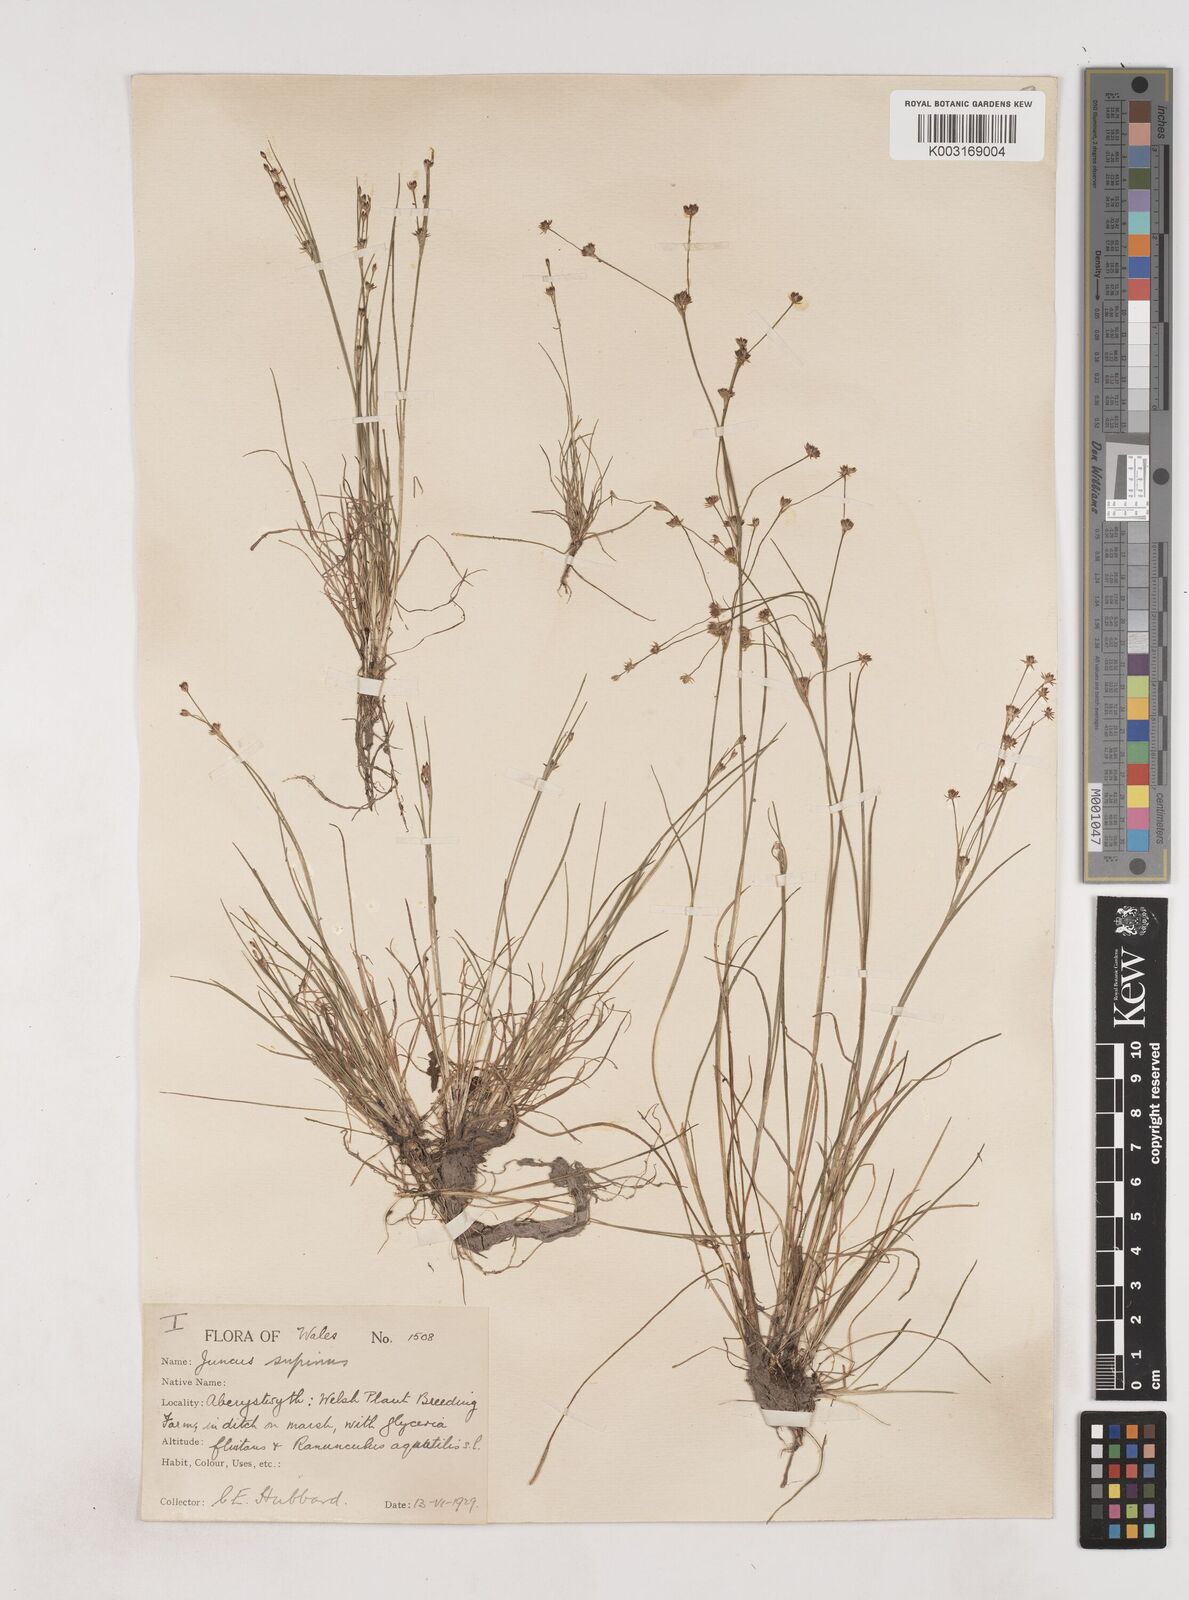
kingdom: Plantae
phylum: Tracheophyta
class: Liliopsida
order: Poales
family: Juncaceae
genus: Juncus
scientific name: Juncus bulbosus
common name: Bulbous rush
